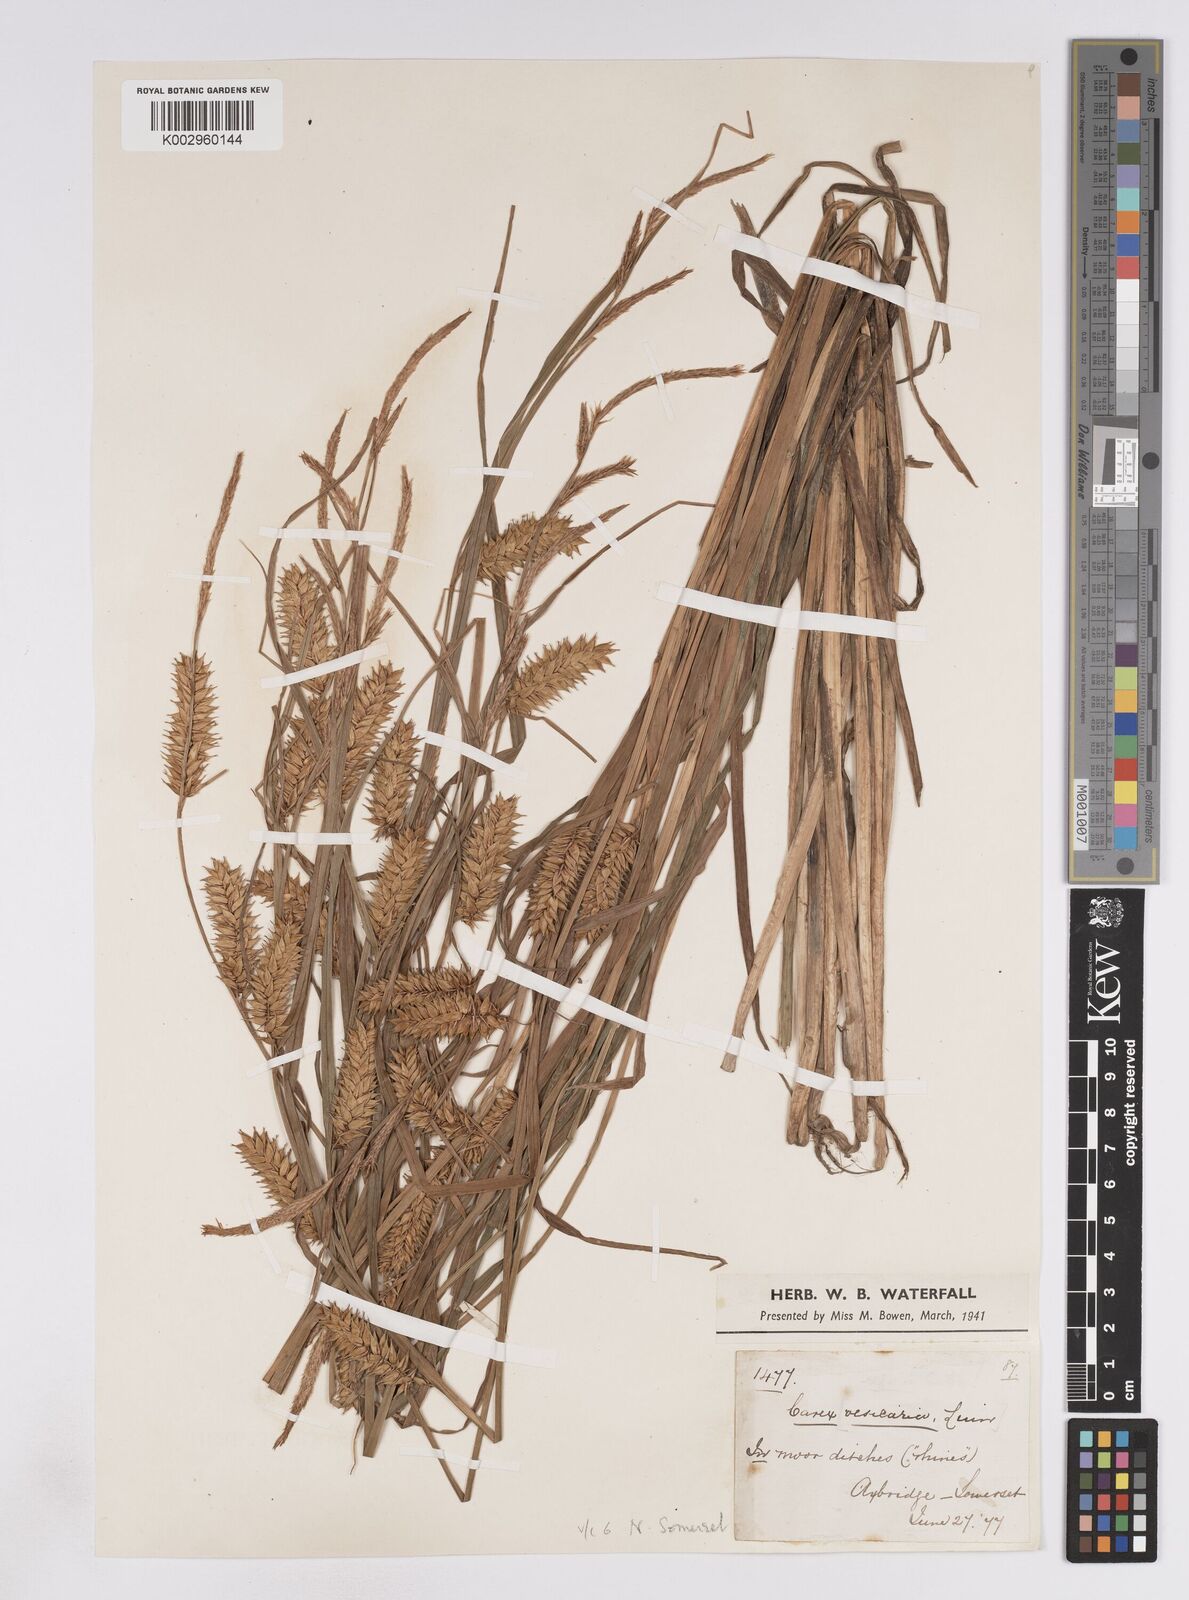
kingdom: Plantae
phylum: Tracheophyta
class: Liliopsida
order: Poales
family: Cyperaceae
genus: Carex
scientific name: Carex vesicaria
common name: Bladder-sedge
